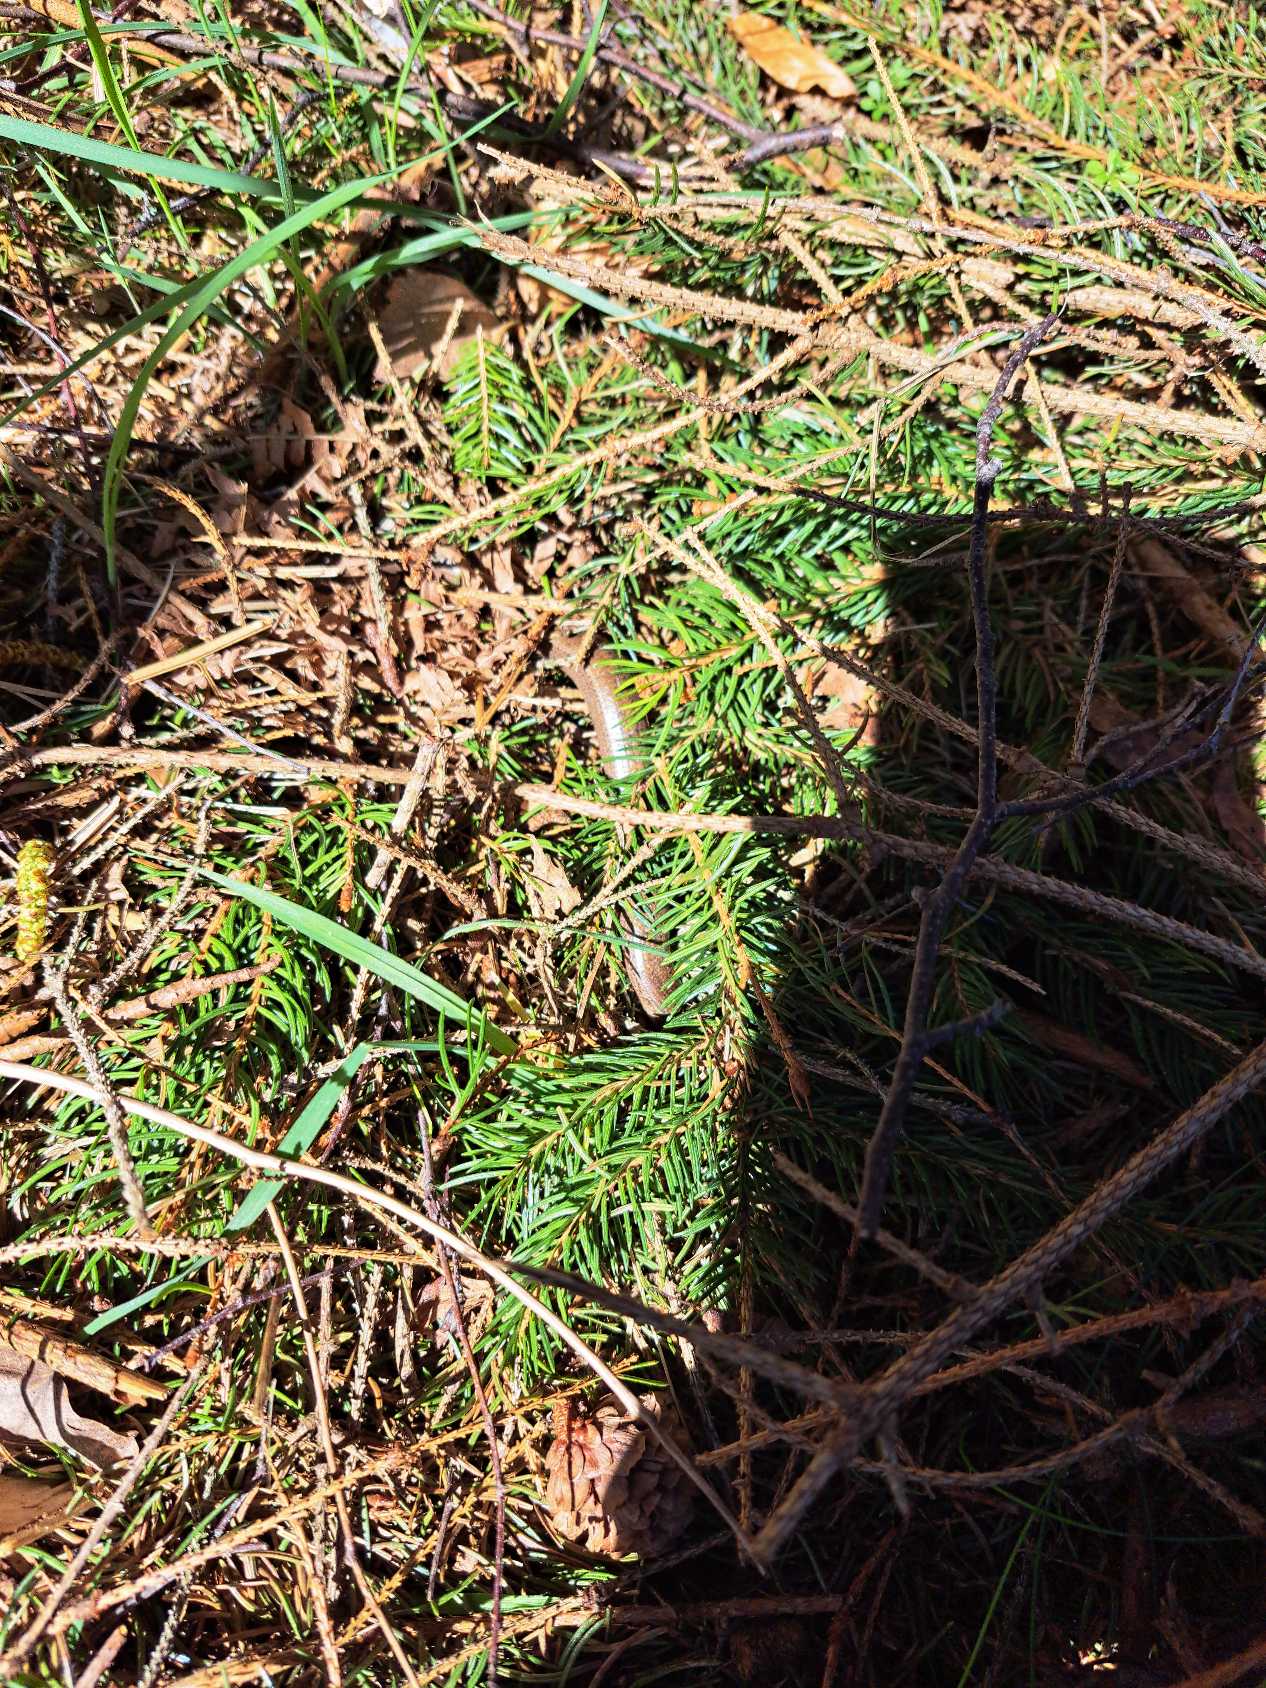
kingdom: Animalia
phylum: Chordata
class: Squamata
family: Anguidae
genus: Anguis
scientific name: Anguis fragilis
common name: Stålorm
